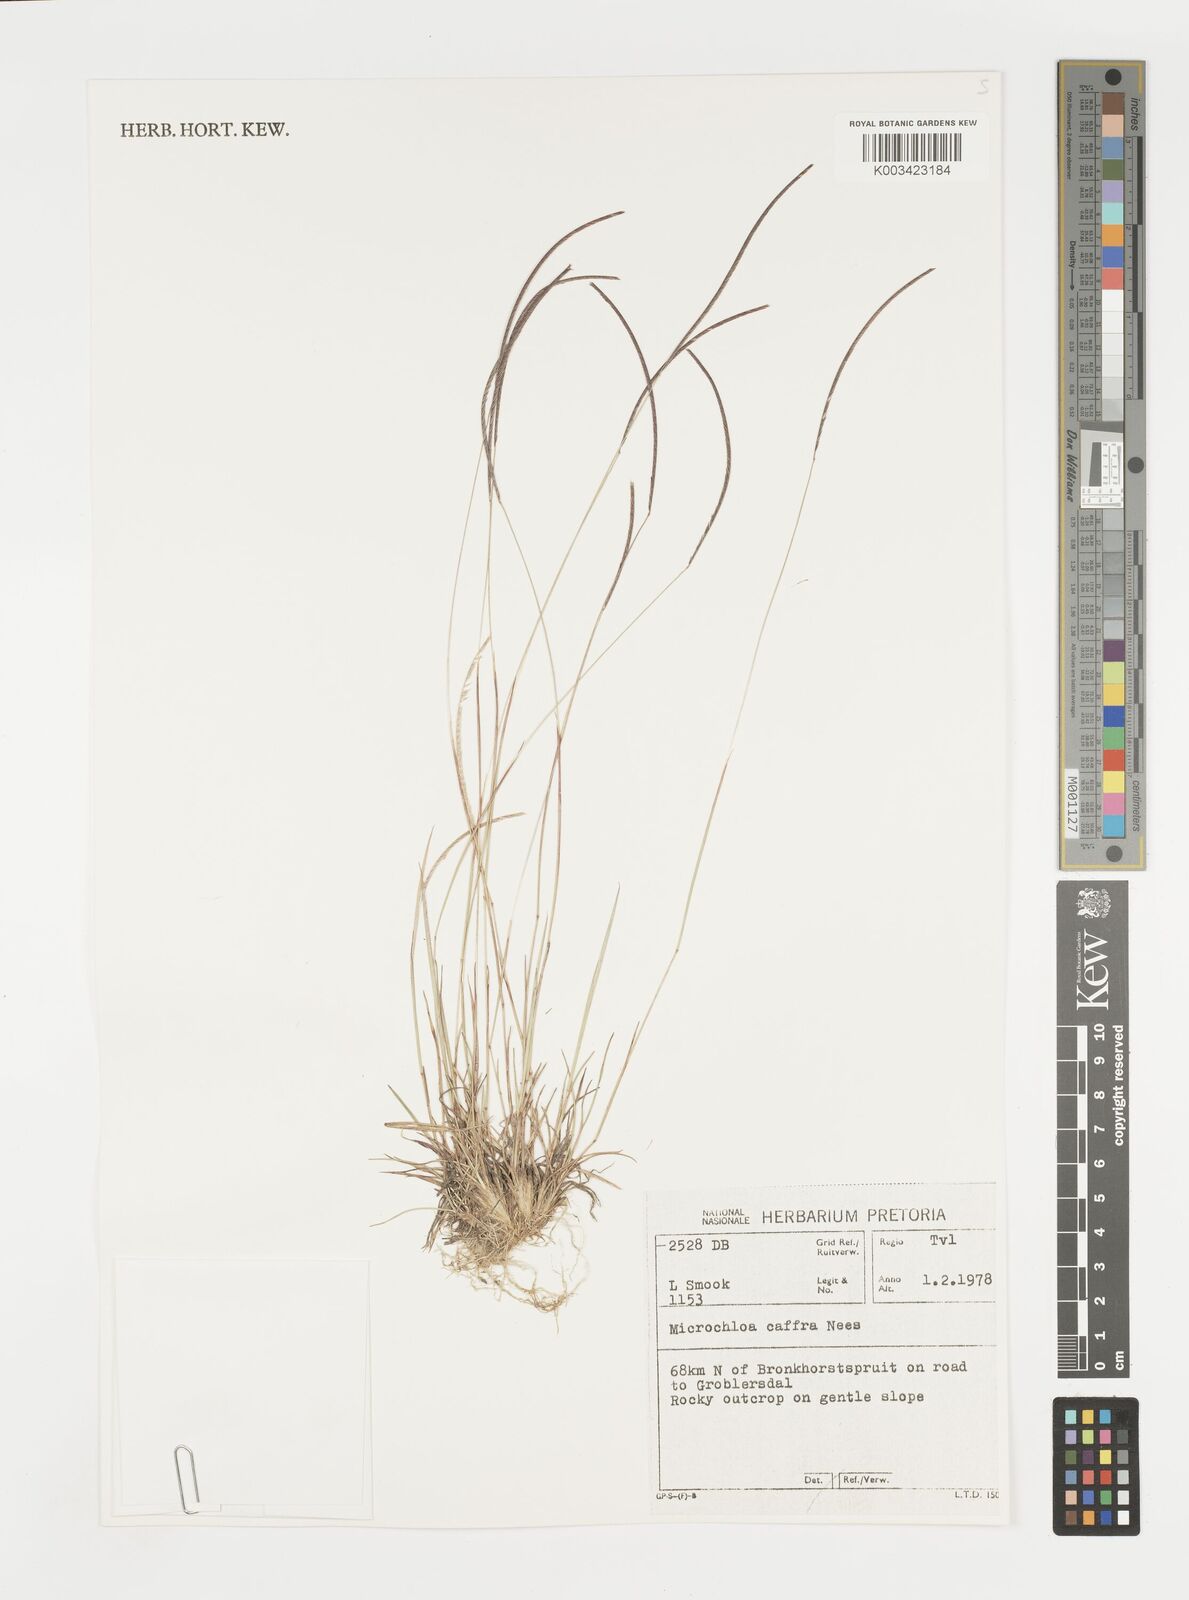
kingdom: Plantae
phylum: Tracheophyta
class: Liliopsida
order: Poales
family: Poaceae
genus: Microchloa
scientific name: Microchloa caffra
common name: Pincushion grass
